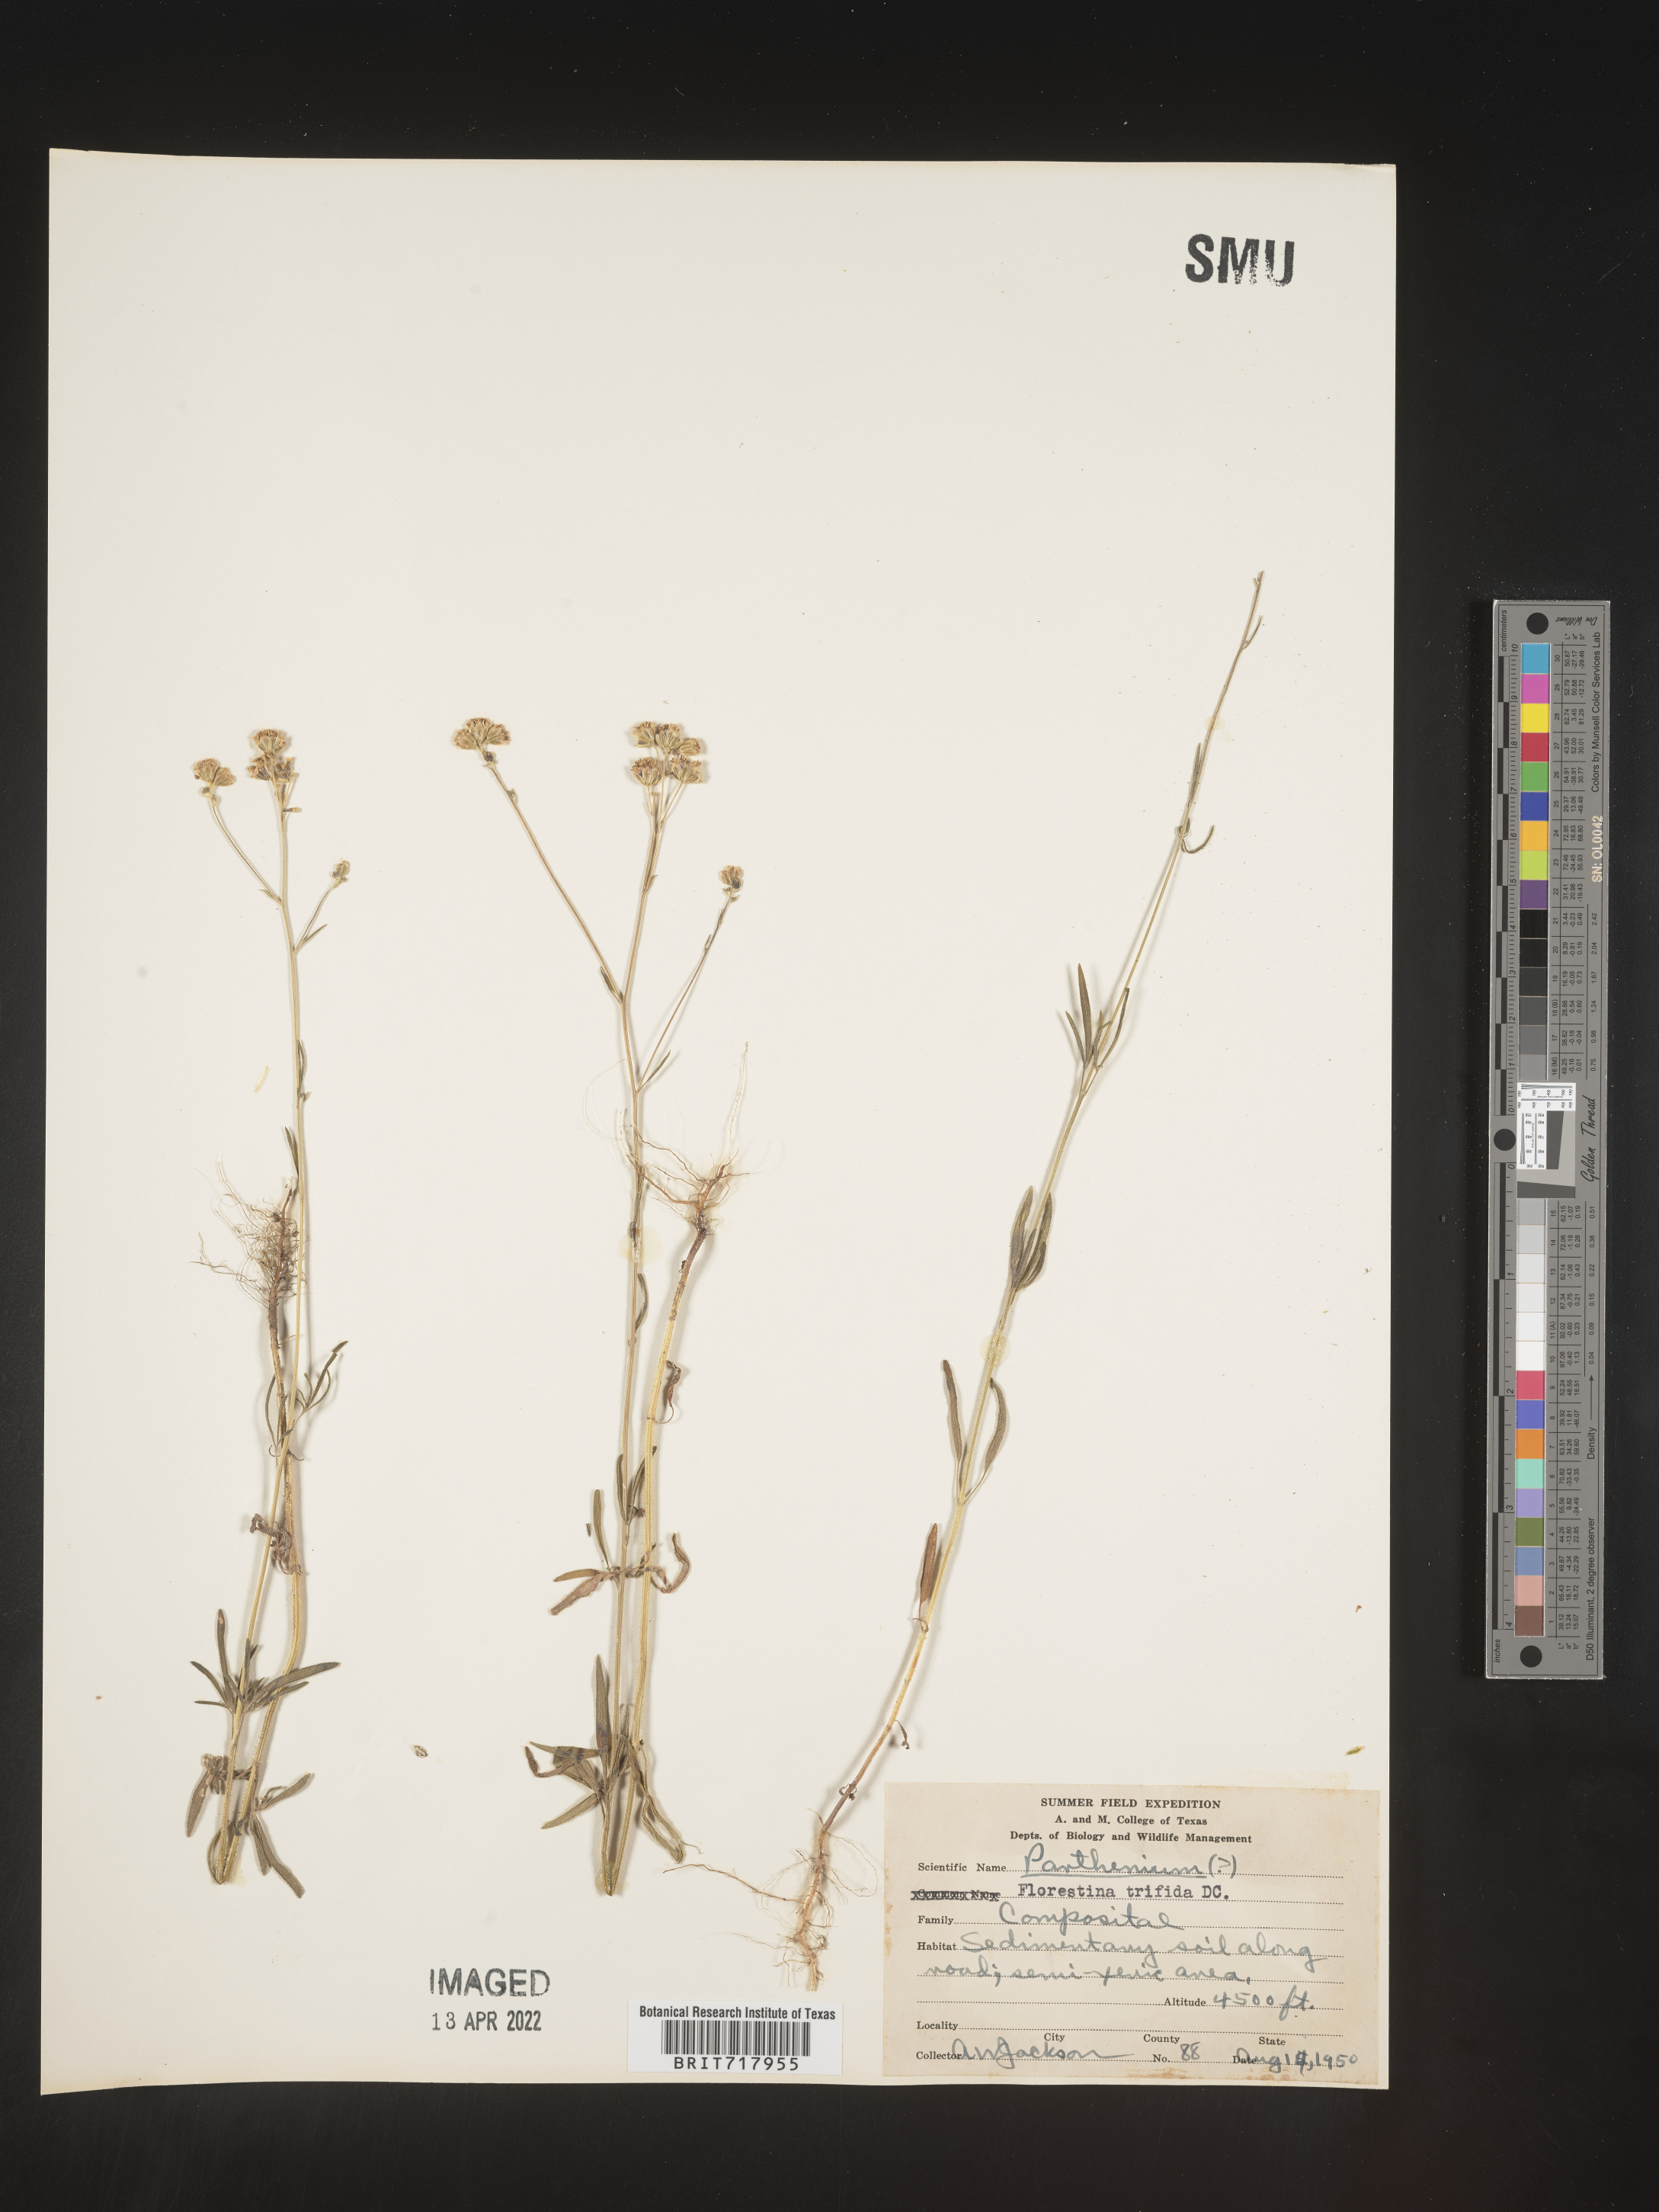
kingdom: Plantae
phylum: Tracheophyta
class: Magnoliopsida
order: Asterales
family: Asteraceae
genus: Florestina
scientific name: Florestina
